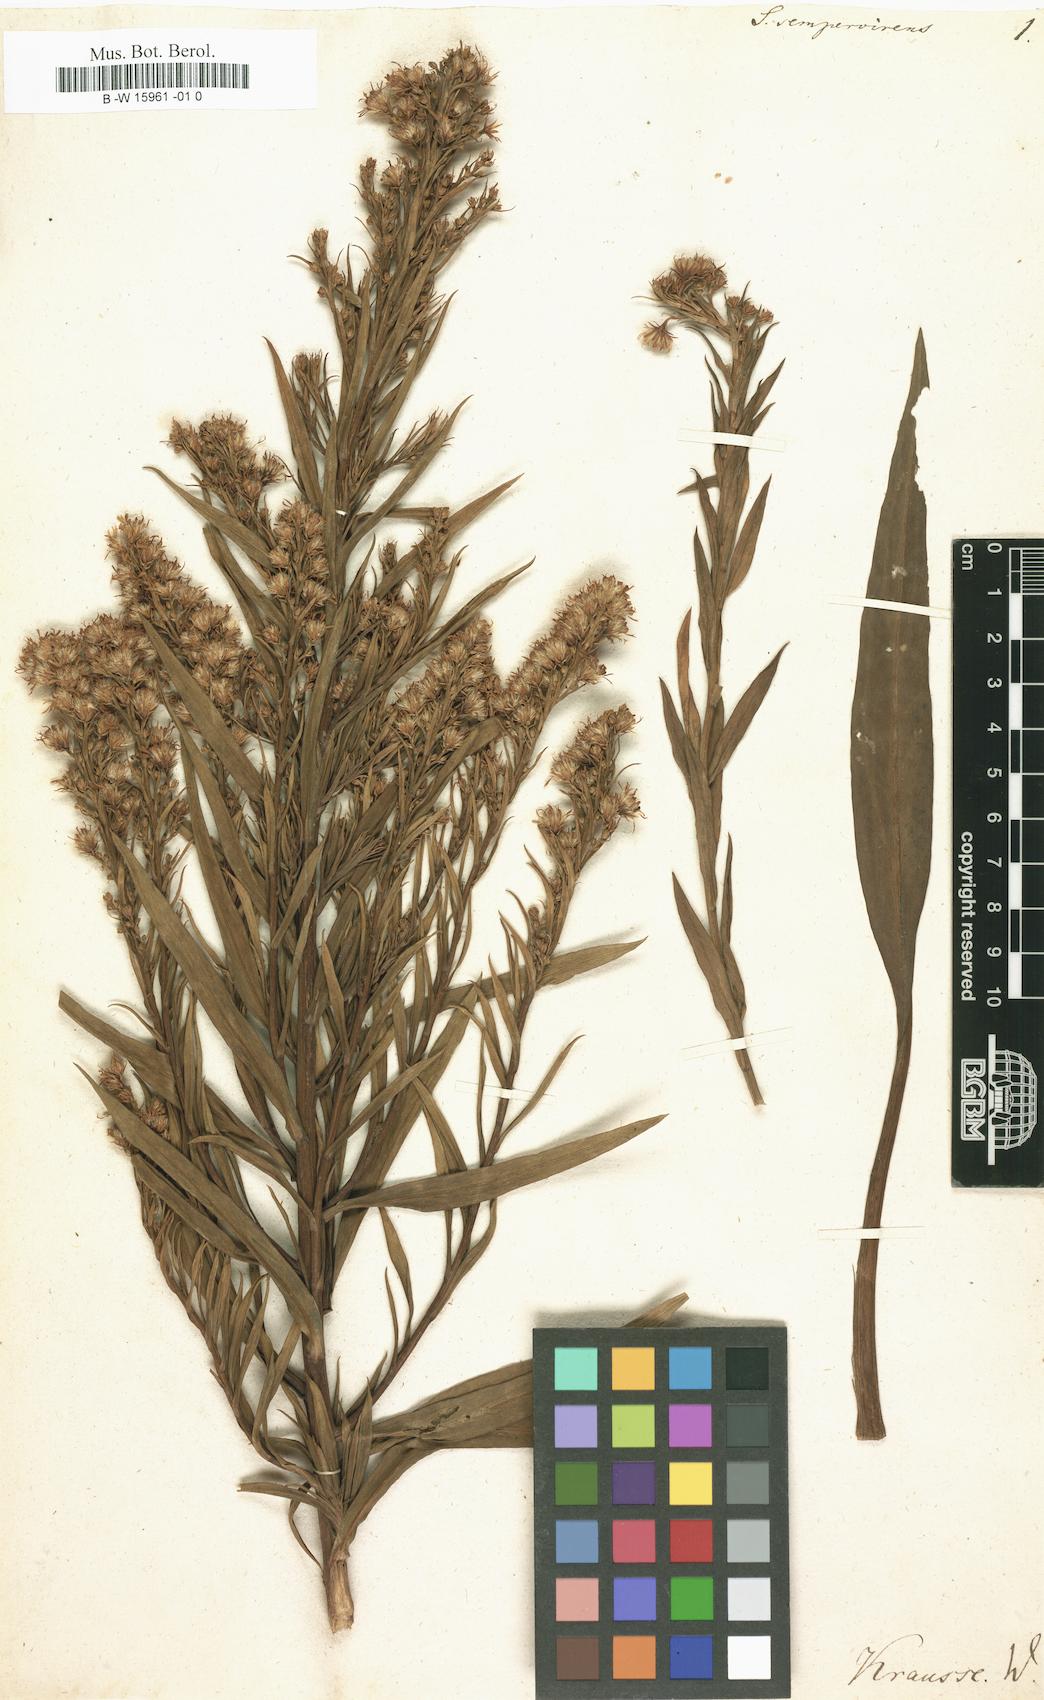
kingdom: Plantae
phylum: Tracheophyta
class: Magnoliopsida
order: Asterales
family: Asteraceae
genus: Solidago
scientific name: Solidago sempervirens
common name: Salt-marsh goldenrod
